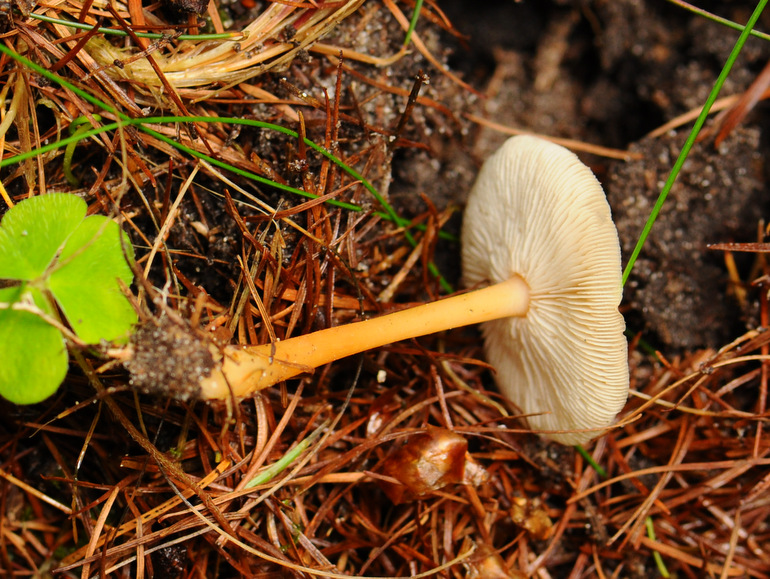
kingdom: Fungi
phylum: Basidiomycota
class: Agaricomycetes
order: Agaricales
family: Omphalotaceae
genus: Gymnopus
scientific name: Gymnopus dryophilus
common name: løv-fladhat
